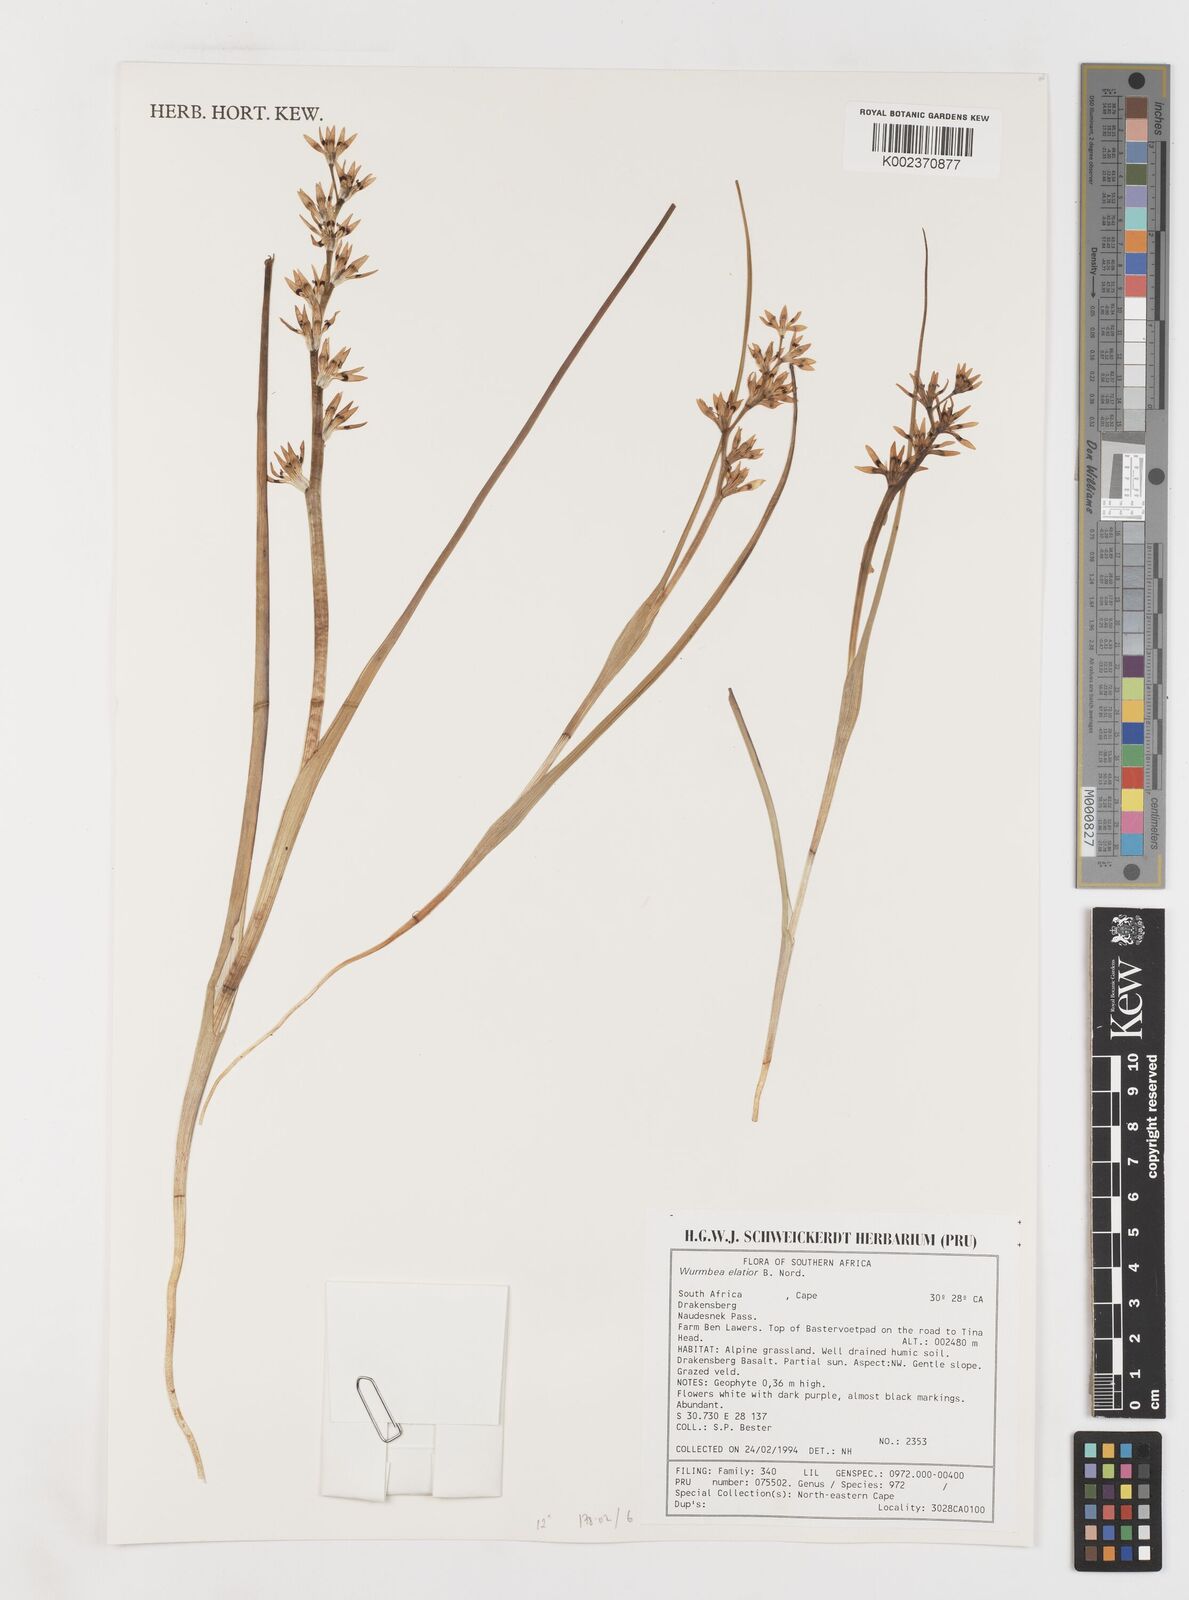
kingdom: Plantae
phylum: Tracheophyta
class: Liliopsida
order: Liliales
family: Colchicaceae
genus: Wurmbea
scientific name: Wurmbea elatior
